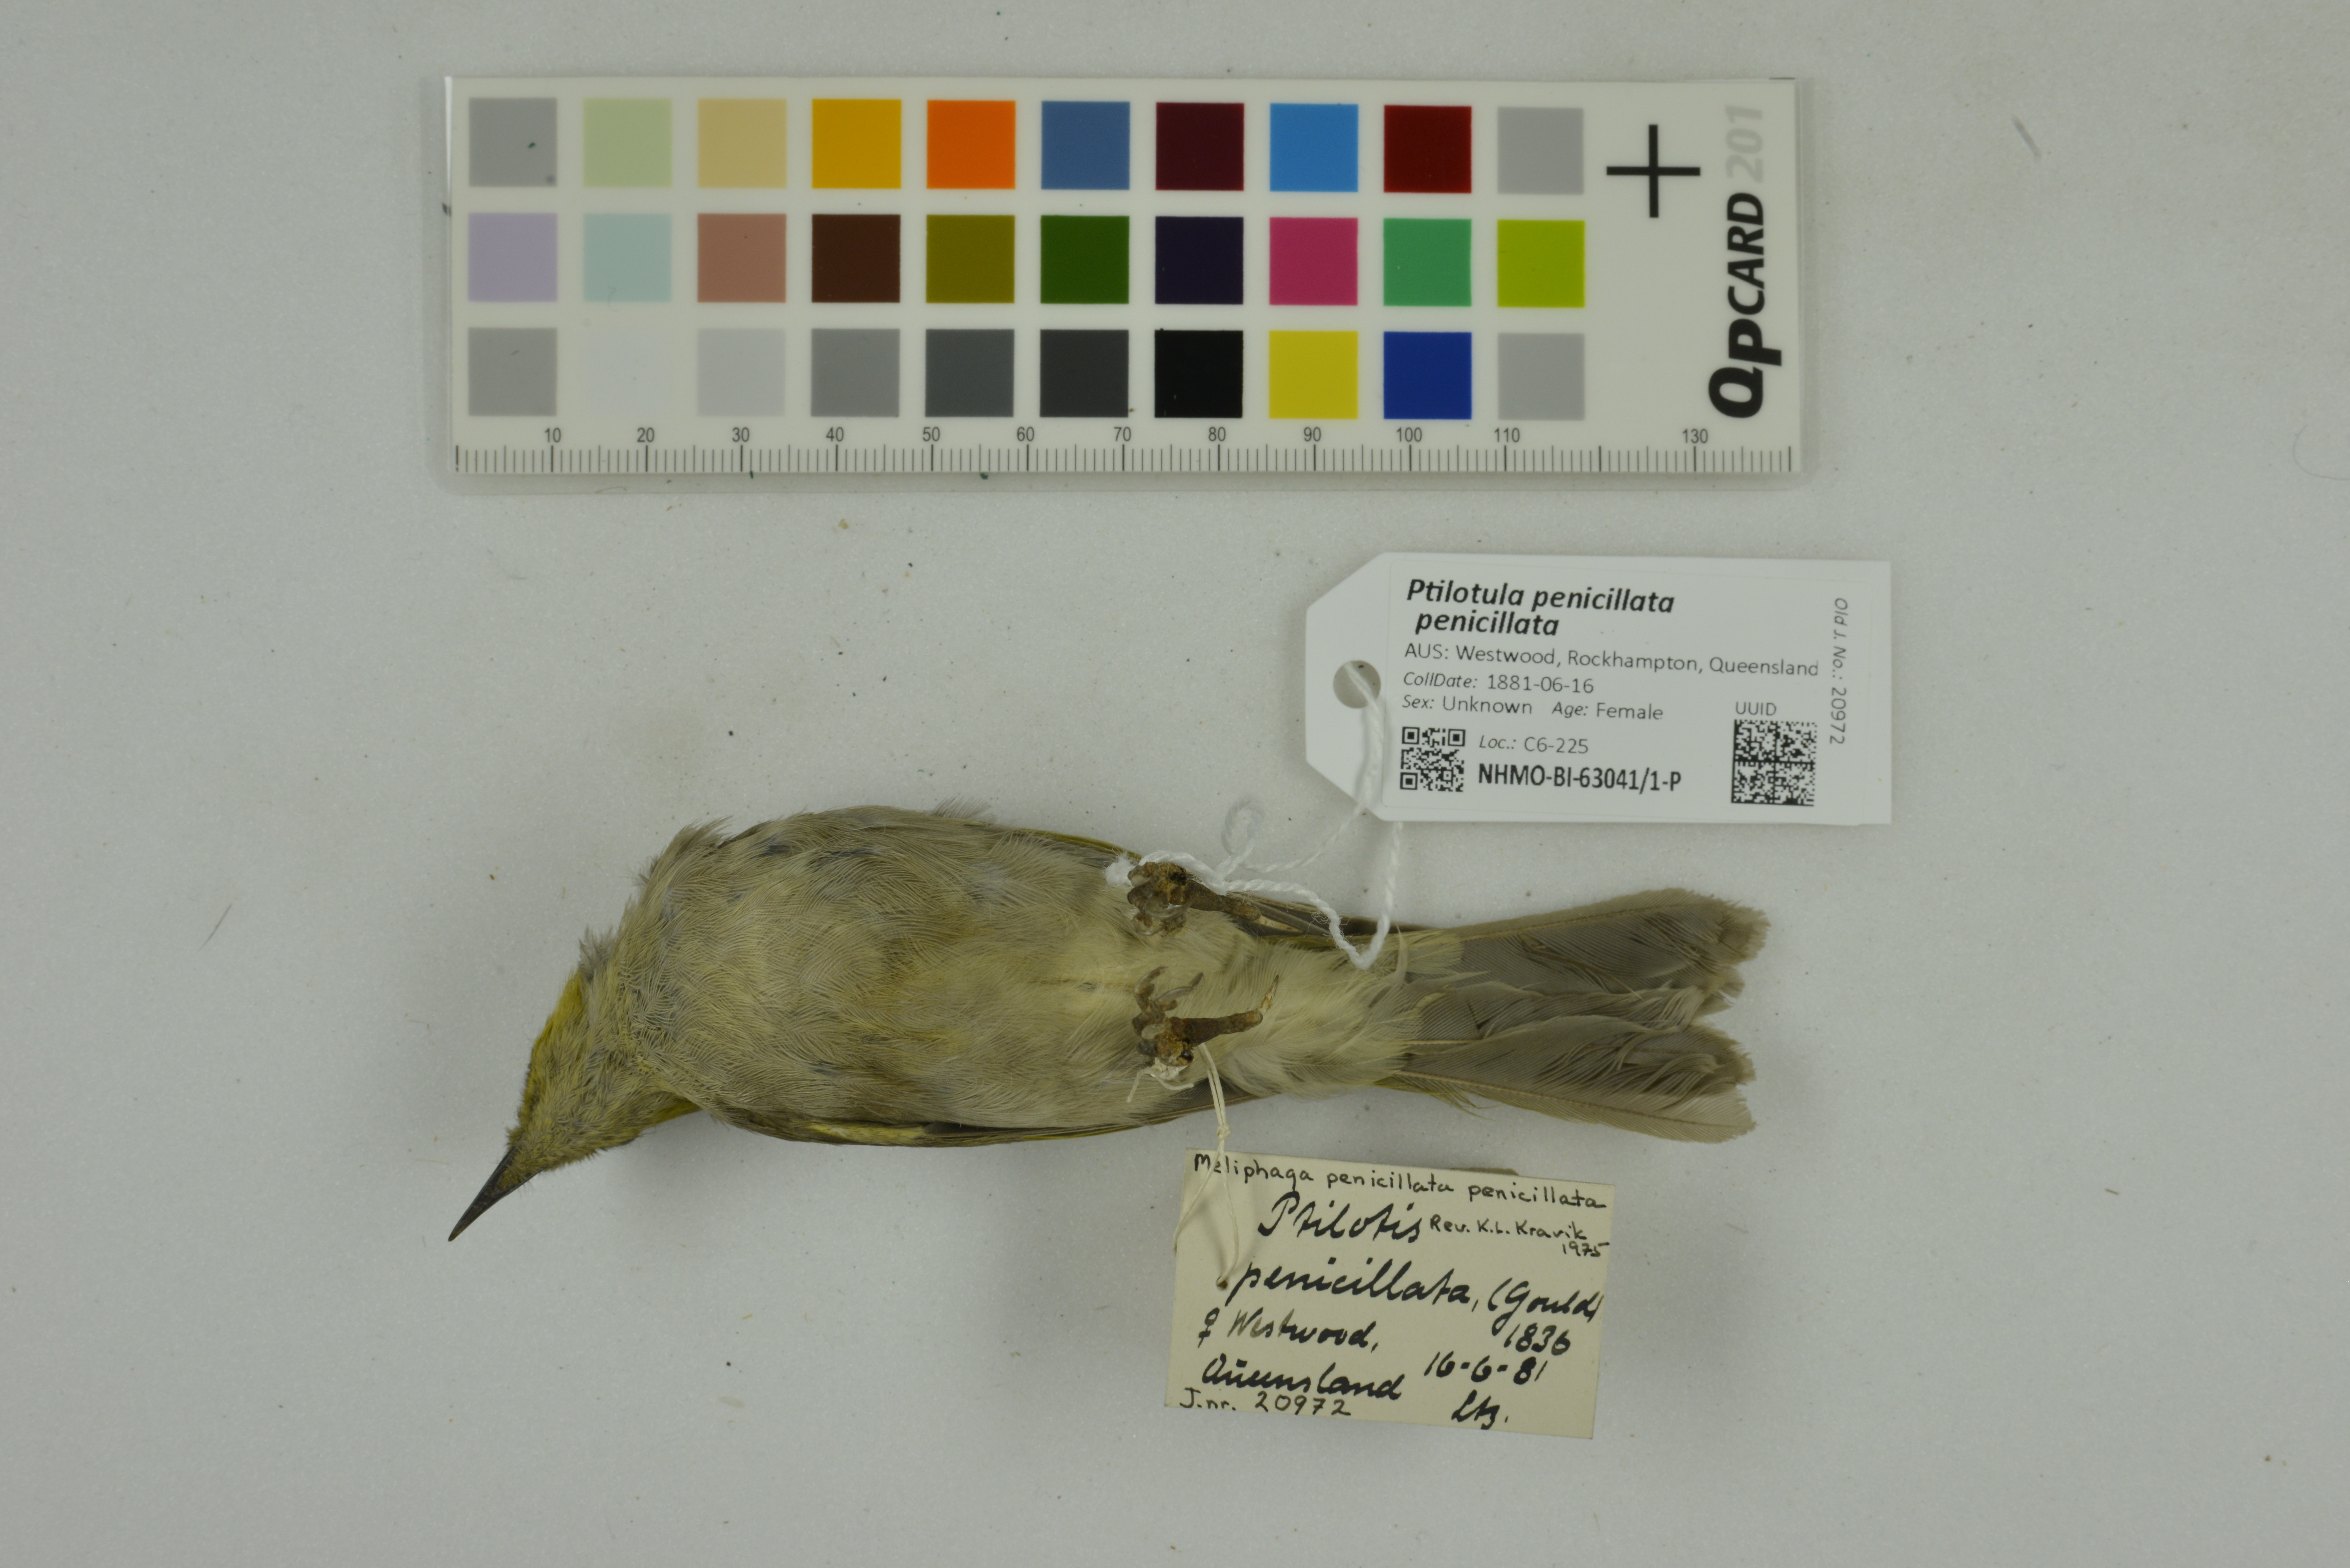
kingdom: Animalia
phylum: Chordata
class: Aves
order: Passeriformes
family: Meliphagidae
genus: Ptilotula
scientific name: Ptilotula penicillata
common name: White-plumed honeyeater
